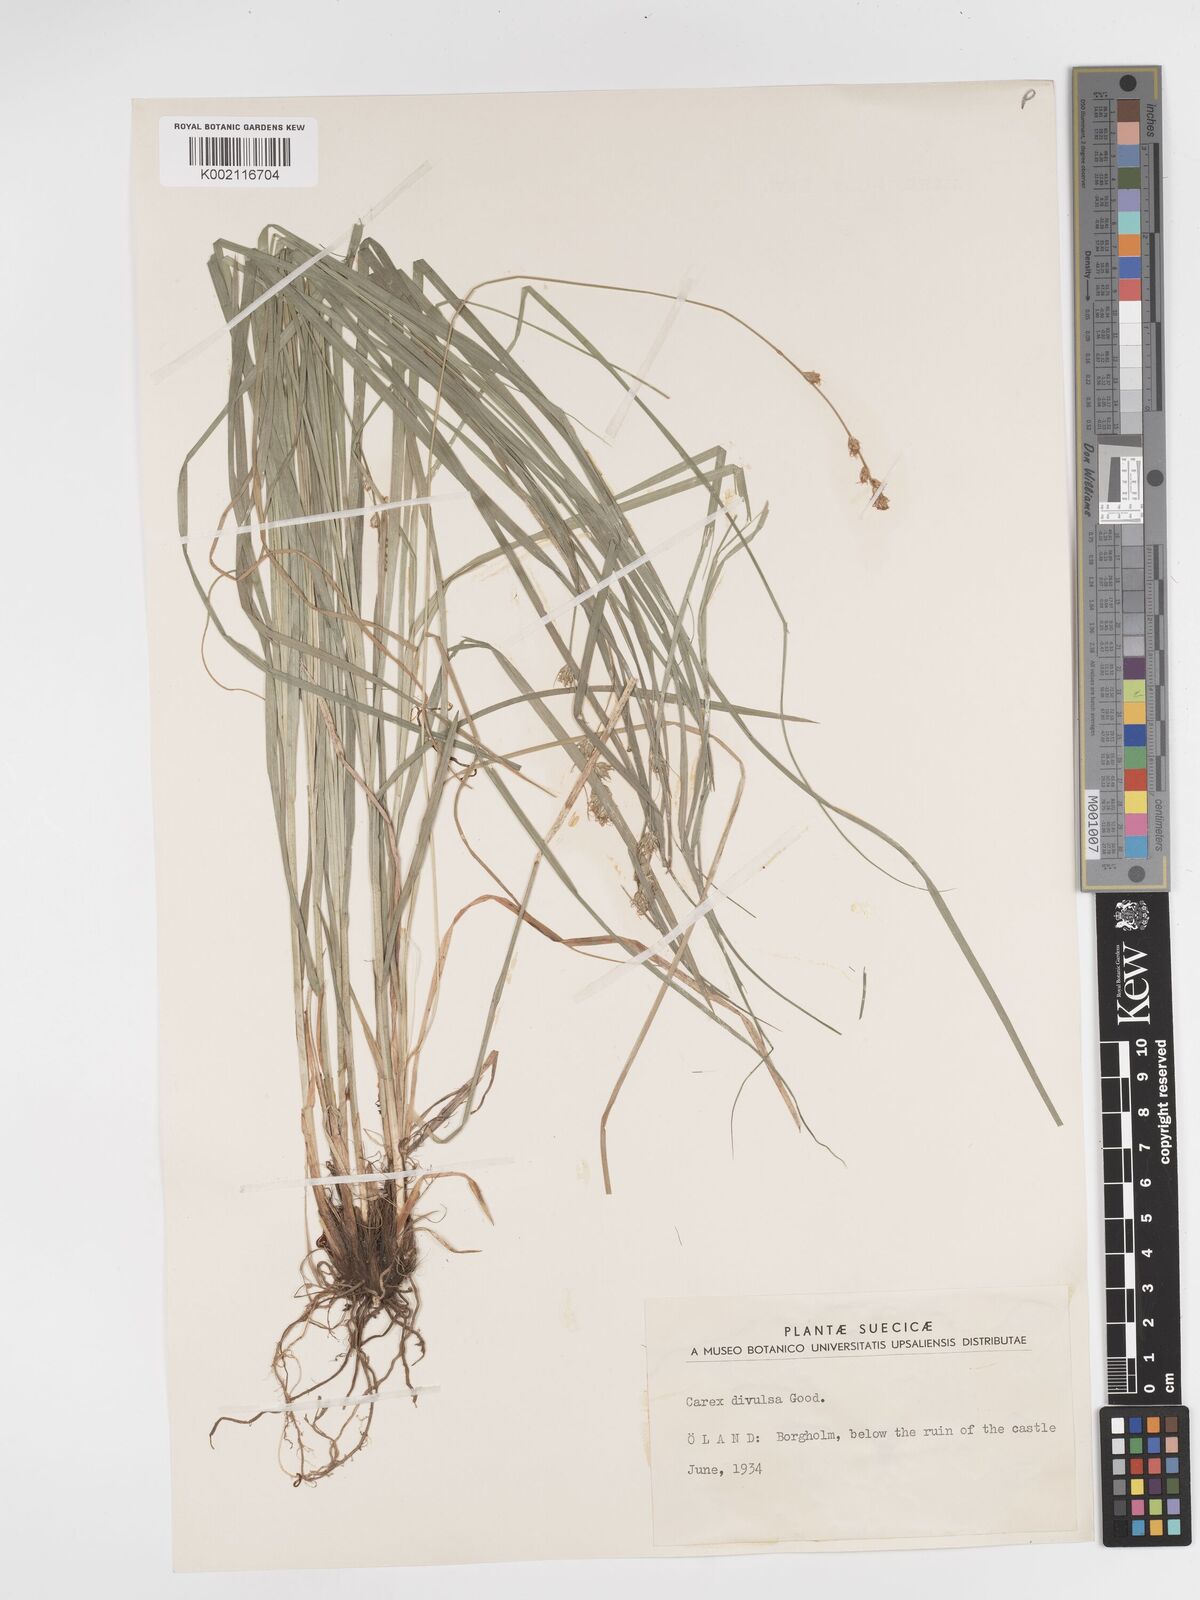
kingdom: Plantae
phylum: Tracheophyta
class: Liliopsida
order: Poales
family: Cyperaceae
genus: Carex
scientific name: Carex divulsa
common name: Grassland sedge
